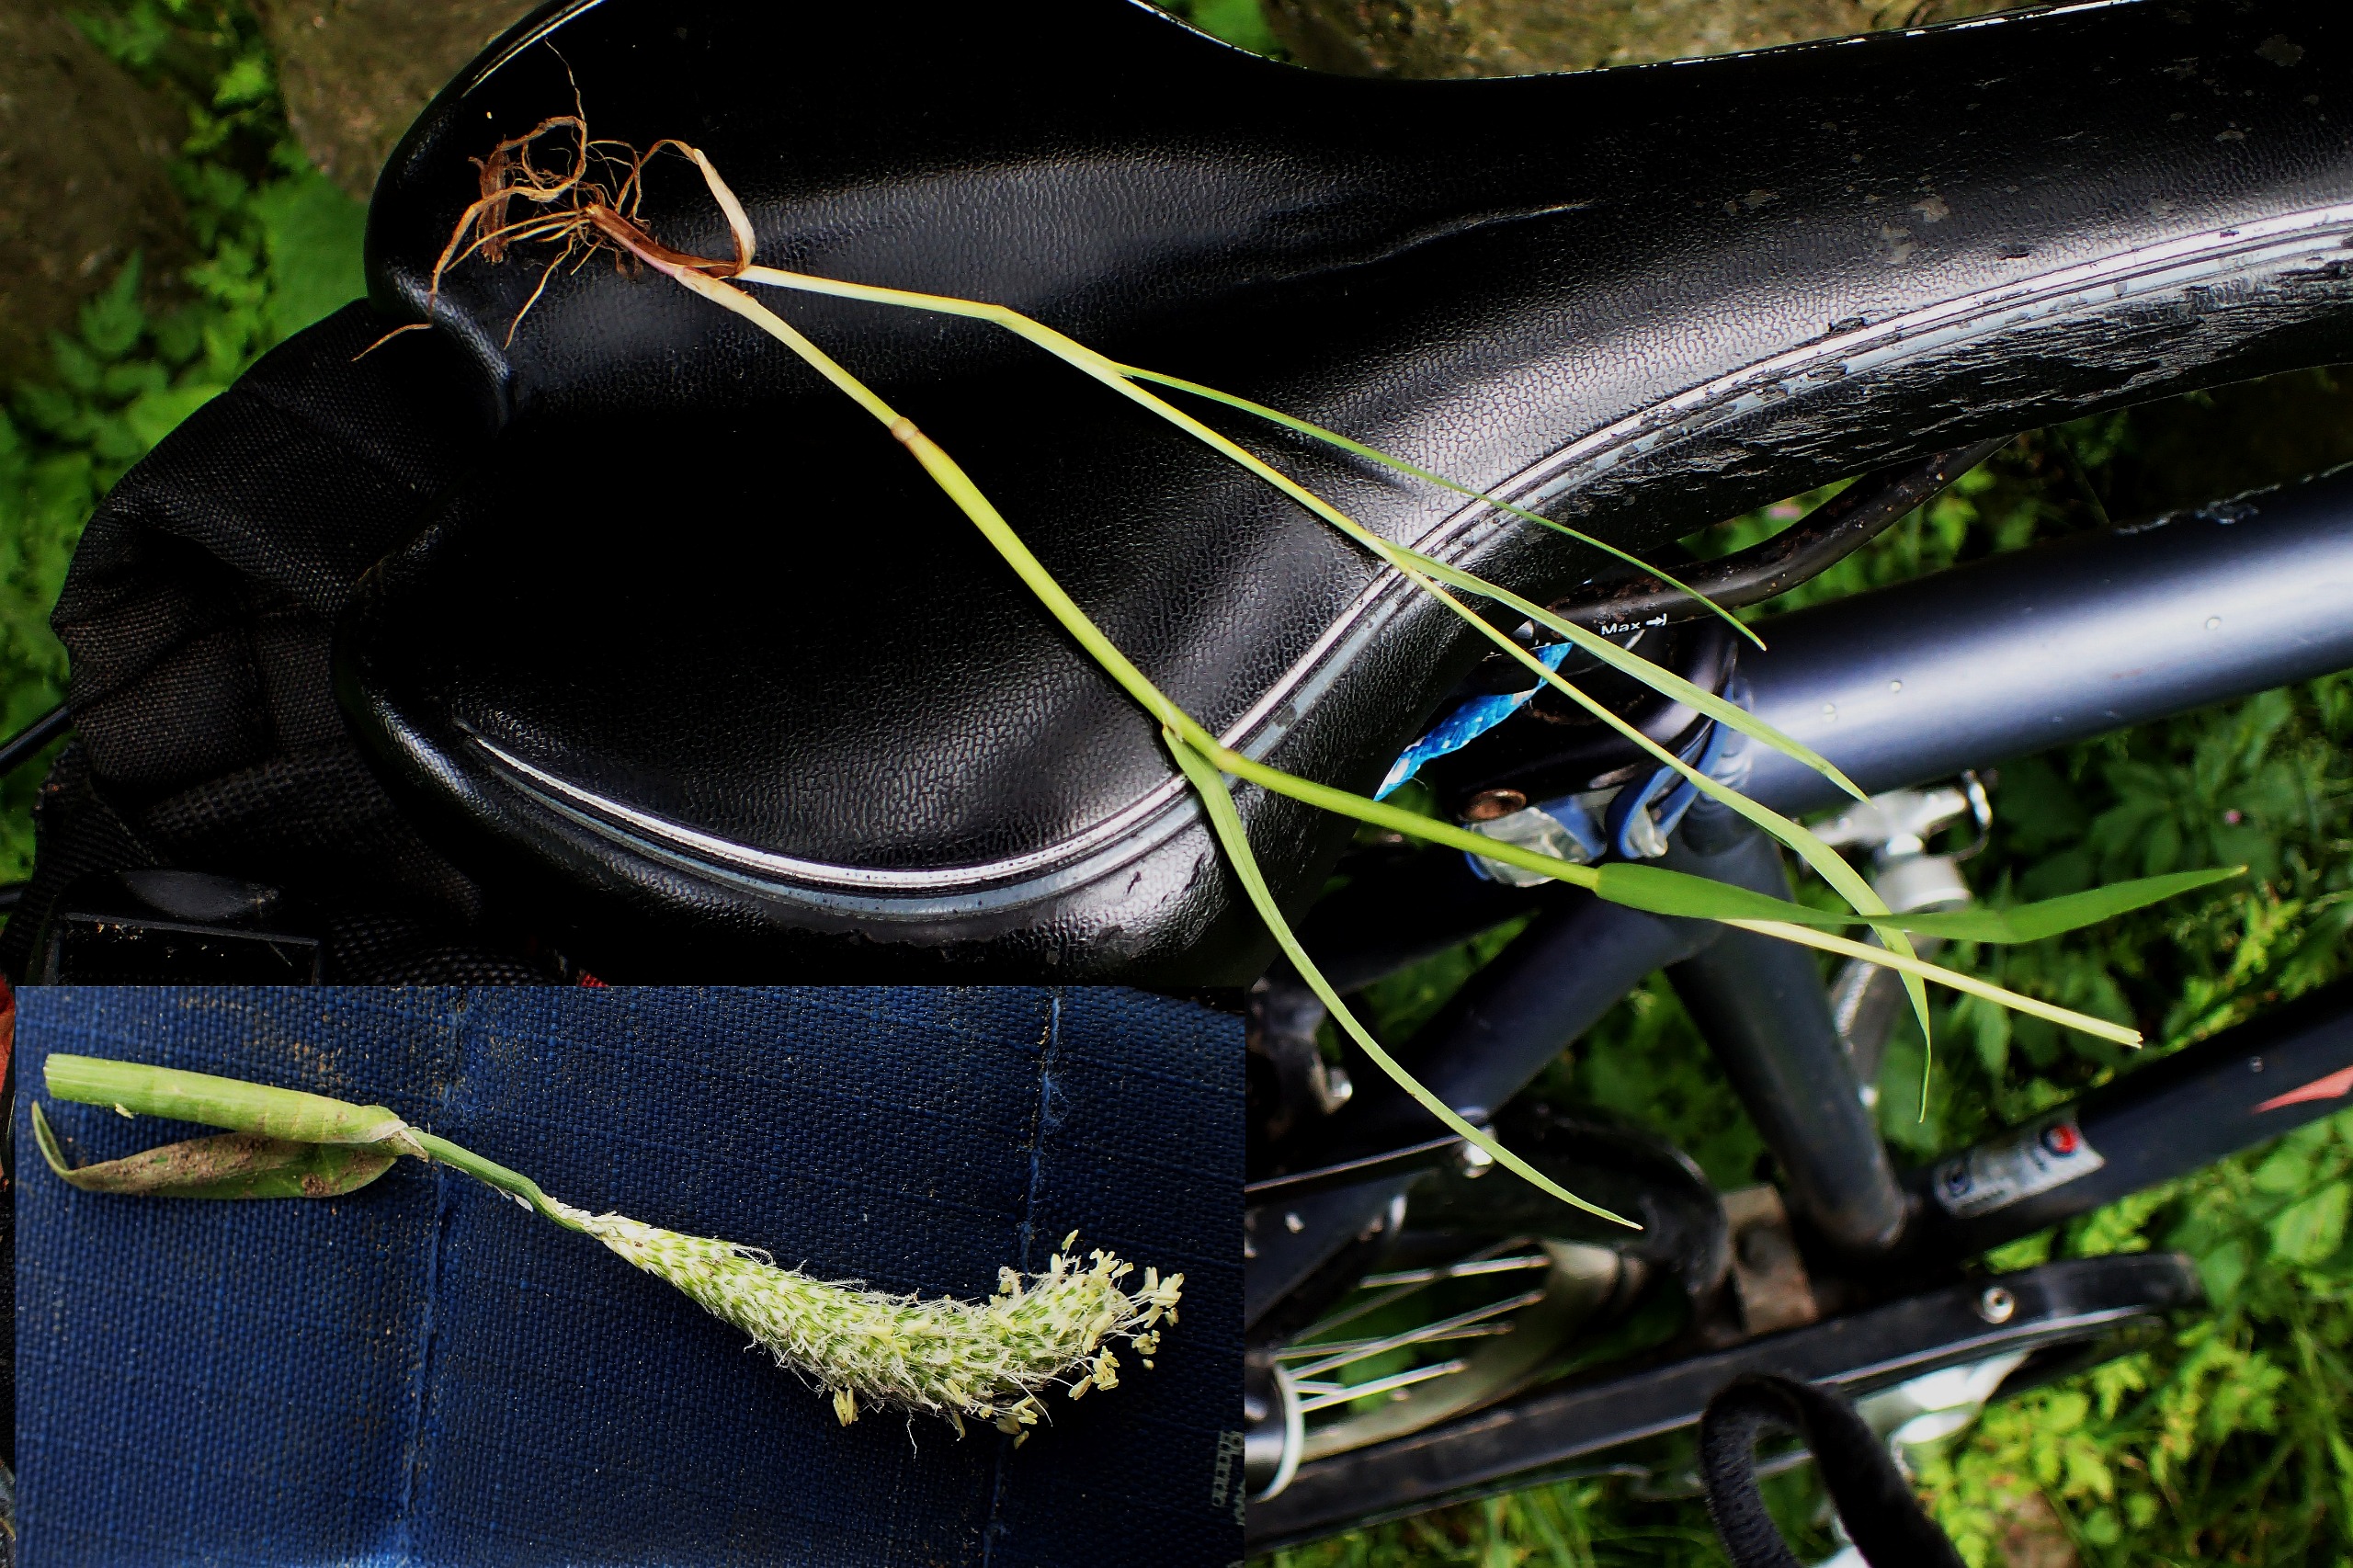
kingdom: Plantae
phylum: Tracheophyta
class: Liliopsida
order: Poales
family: Poaceae
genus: Alopecurus
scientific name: Alopecurus aequalis
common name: Gul rævehale
